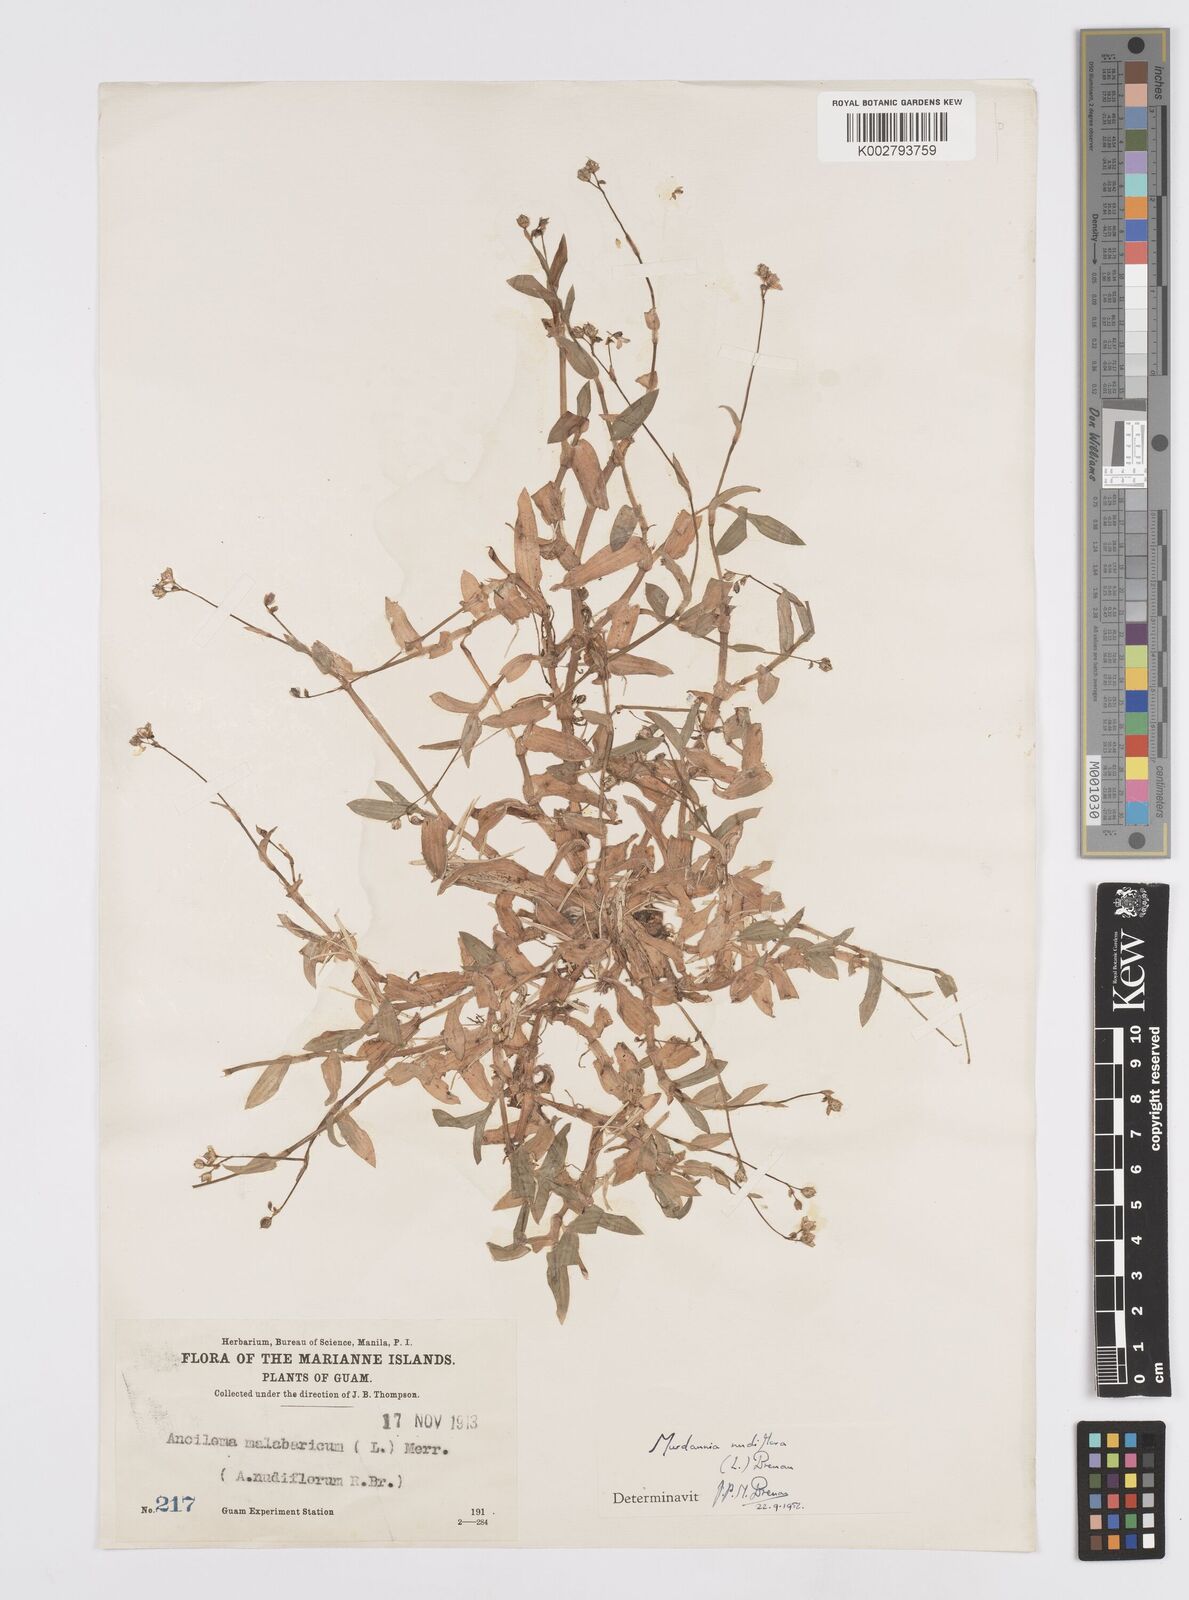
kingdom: Plantae
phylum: Tracheophyta
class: Liliopsida
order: Commelinales
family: Commelinaceae
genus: Murdannia
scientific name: Murdannia nudiflora
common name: Nakedstem dewflower
